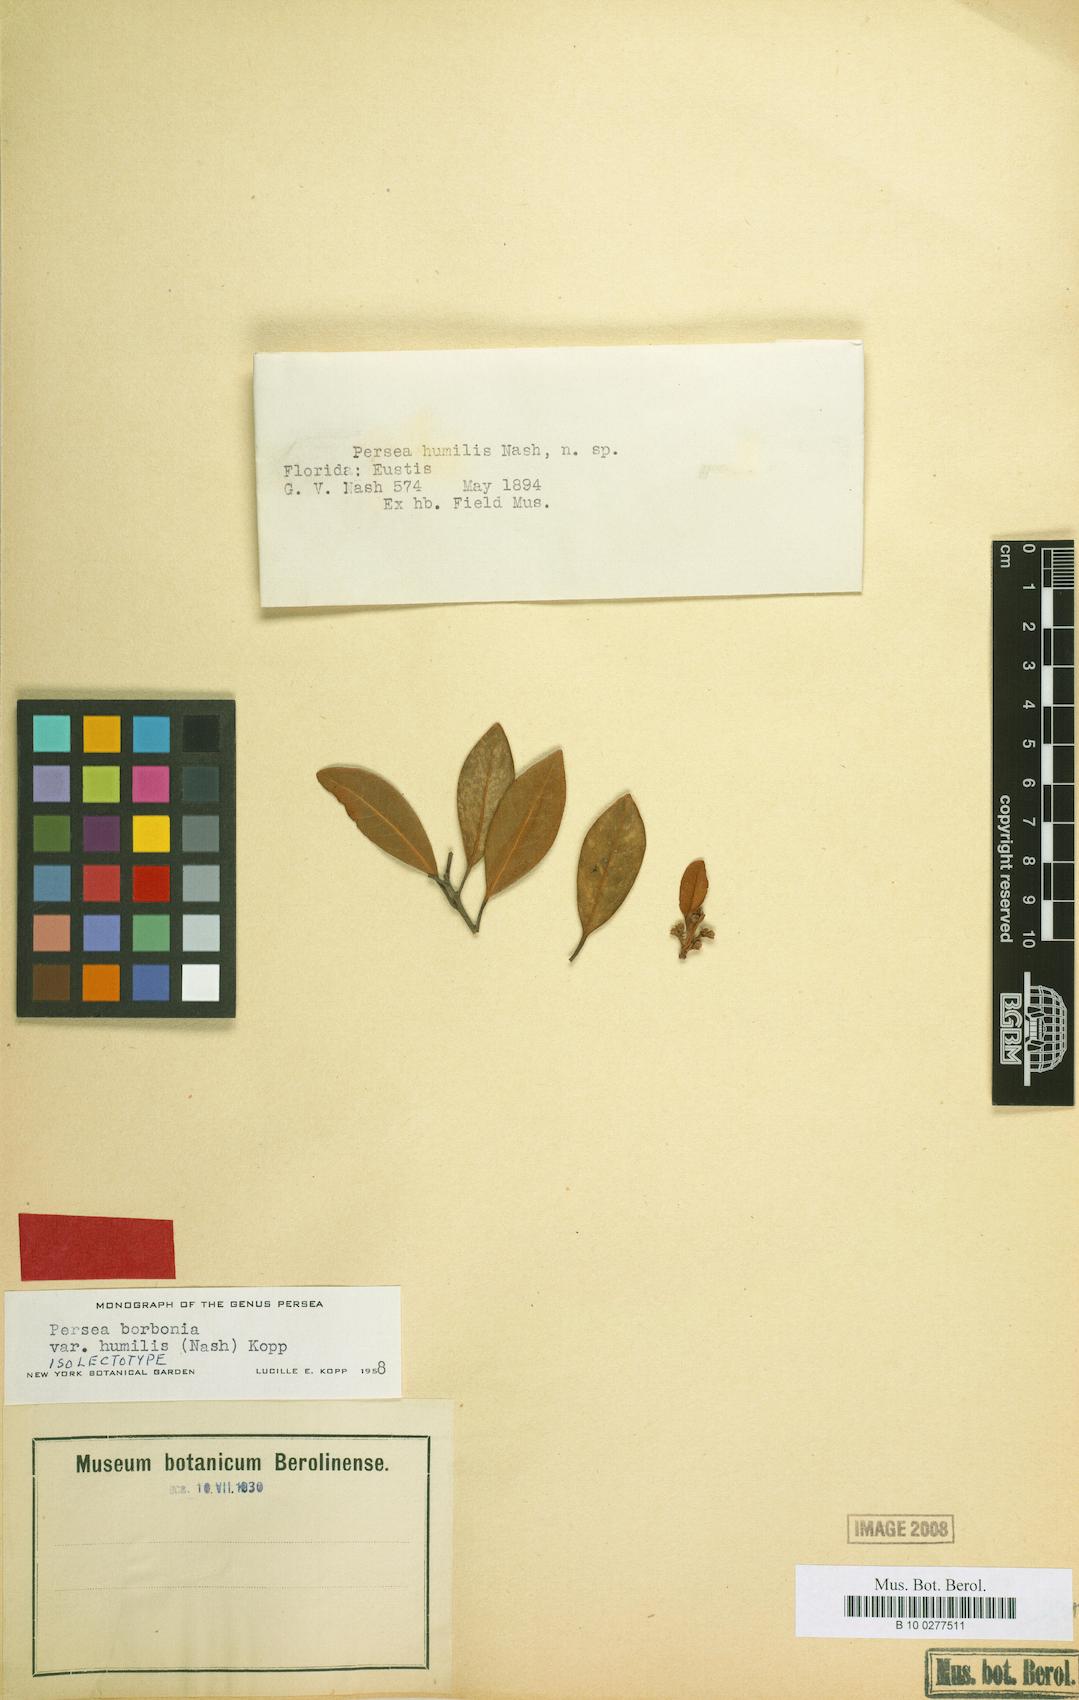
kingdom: Plantae
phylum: Tracheophyta
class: Magnoliopsida
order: Laurales
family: Lauraceae
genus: Persea
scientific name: Persea humilis
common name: Silkbay
